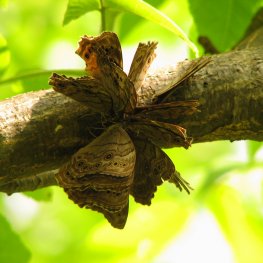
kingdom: Animalia
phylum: Arthropoda
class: Insecta
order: Lepidoptera
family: Nymphalidae
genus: Lethe
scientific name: Lethe anthedon
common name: Northern Pearly-Eye
